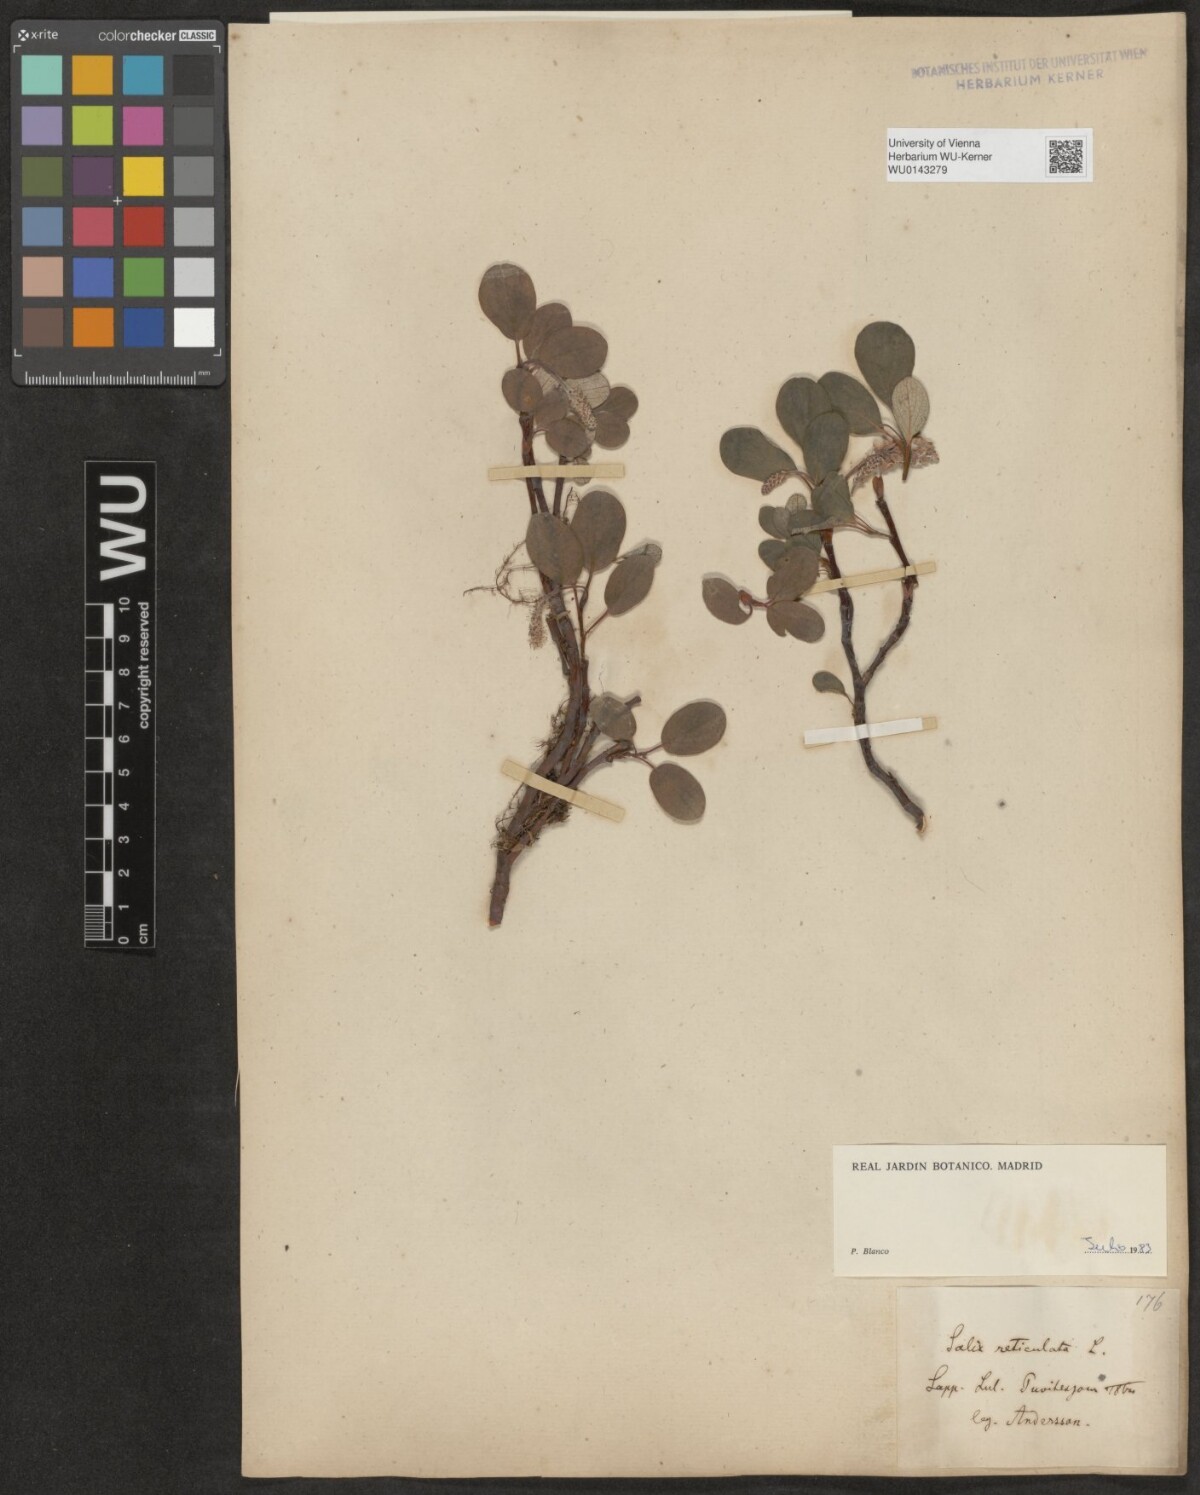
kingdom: Plantae
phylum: Tracheophyta
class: Magnoliopsida
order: Malpighiales
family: Salicaceae
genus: Salix
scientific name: Salix reticulata
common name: Net-leaved willow
